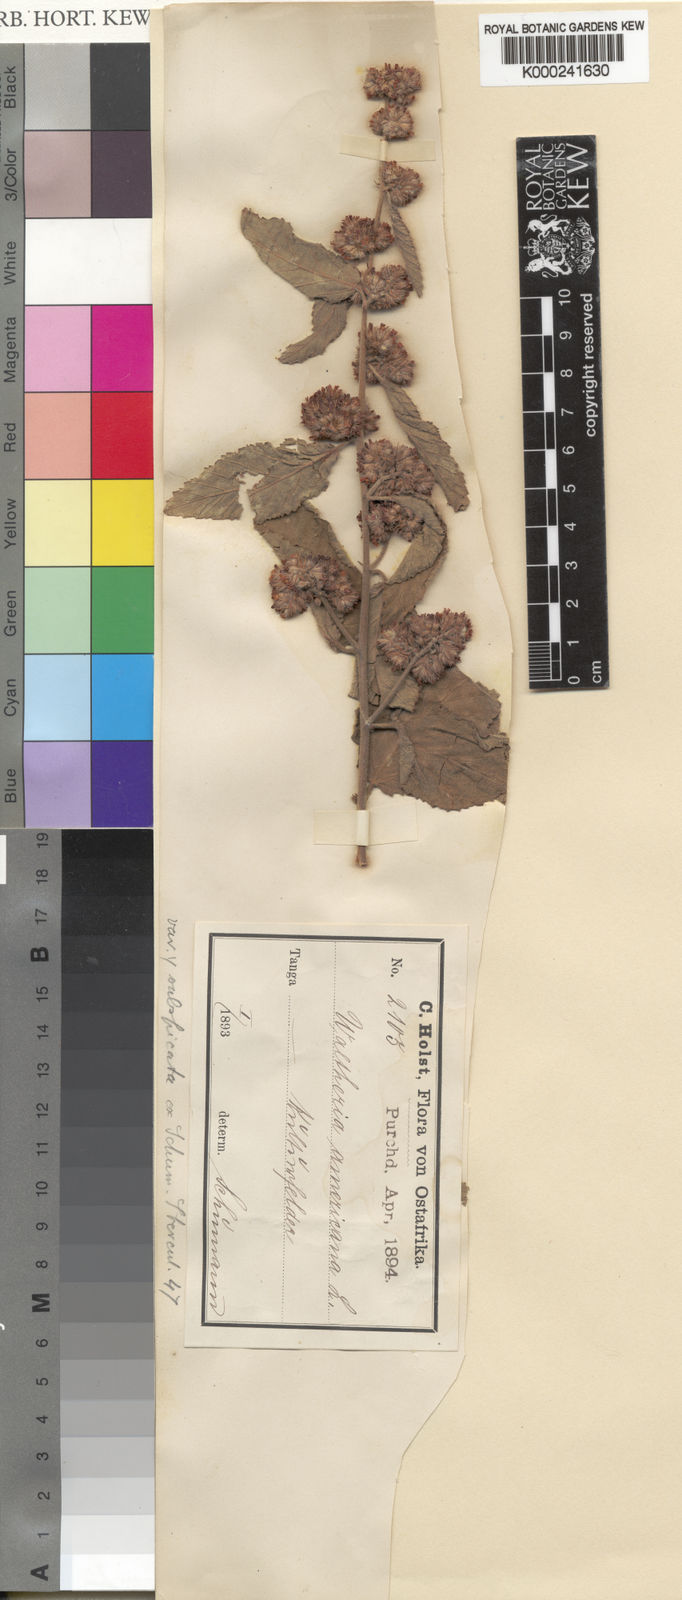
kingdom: Plantae
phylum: Tracheophyta
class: Magnoliopsida
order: Malvales
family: Malvaceae
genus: Waltheria
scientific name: Waltheria indica
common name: Leather-coat
